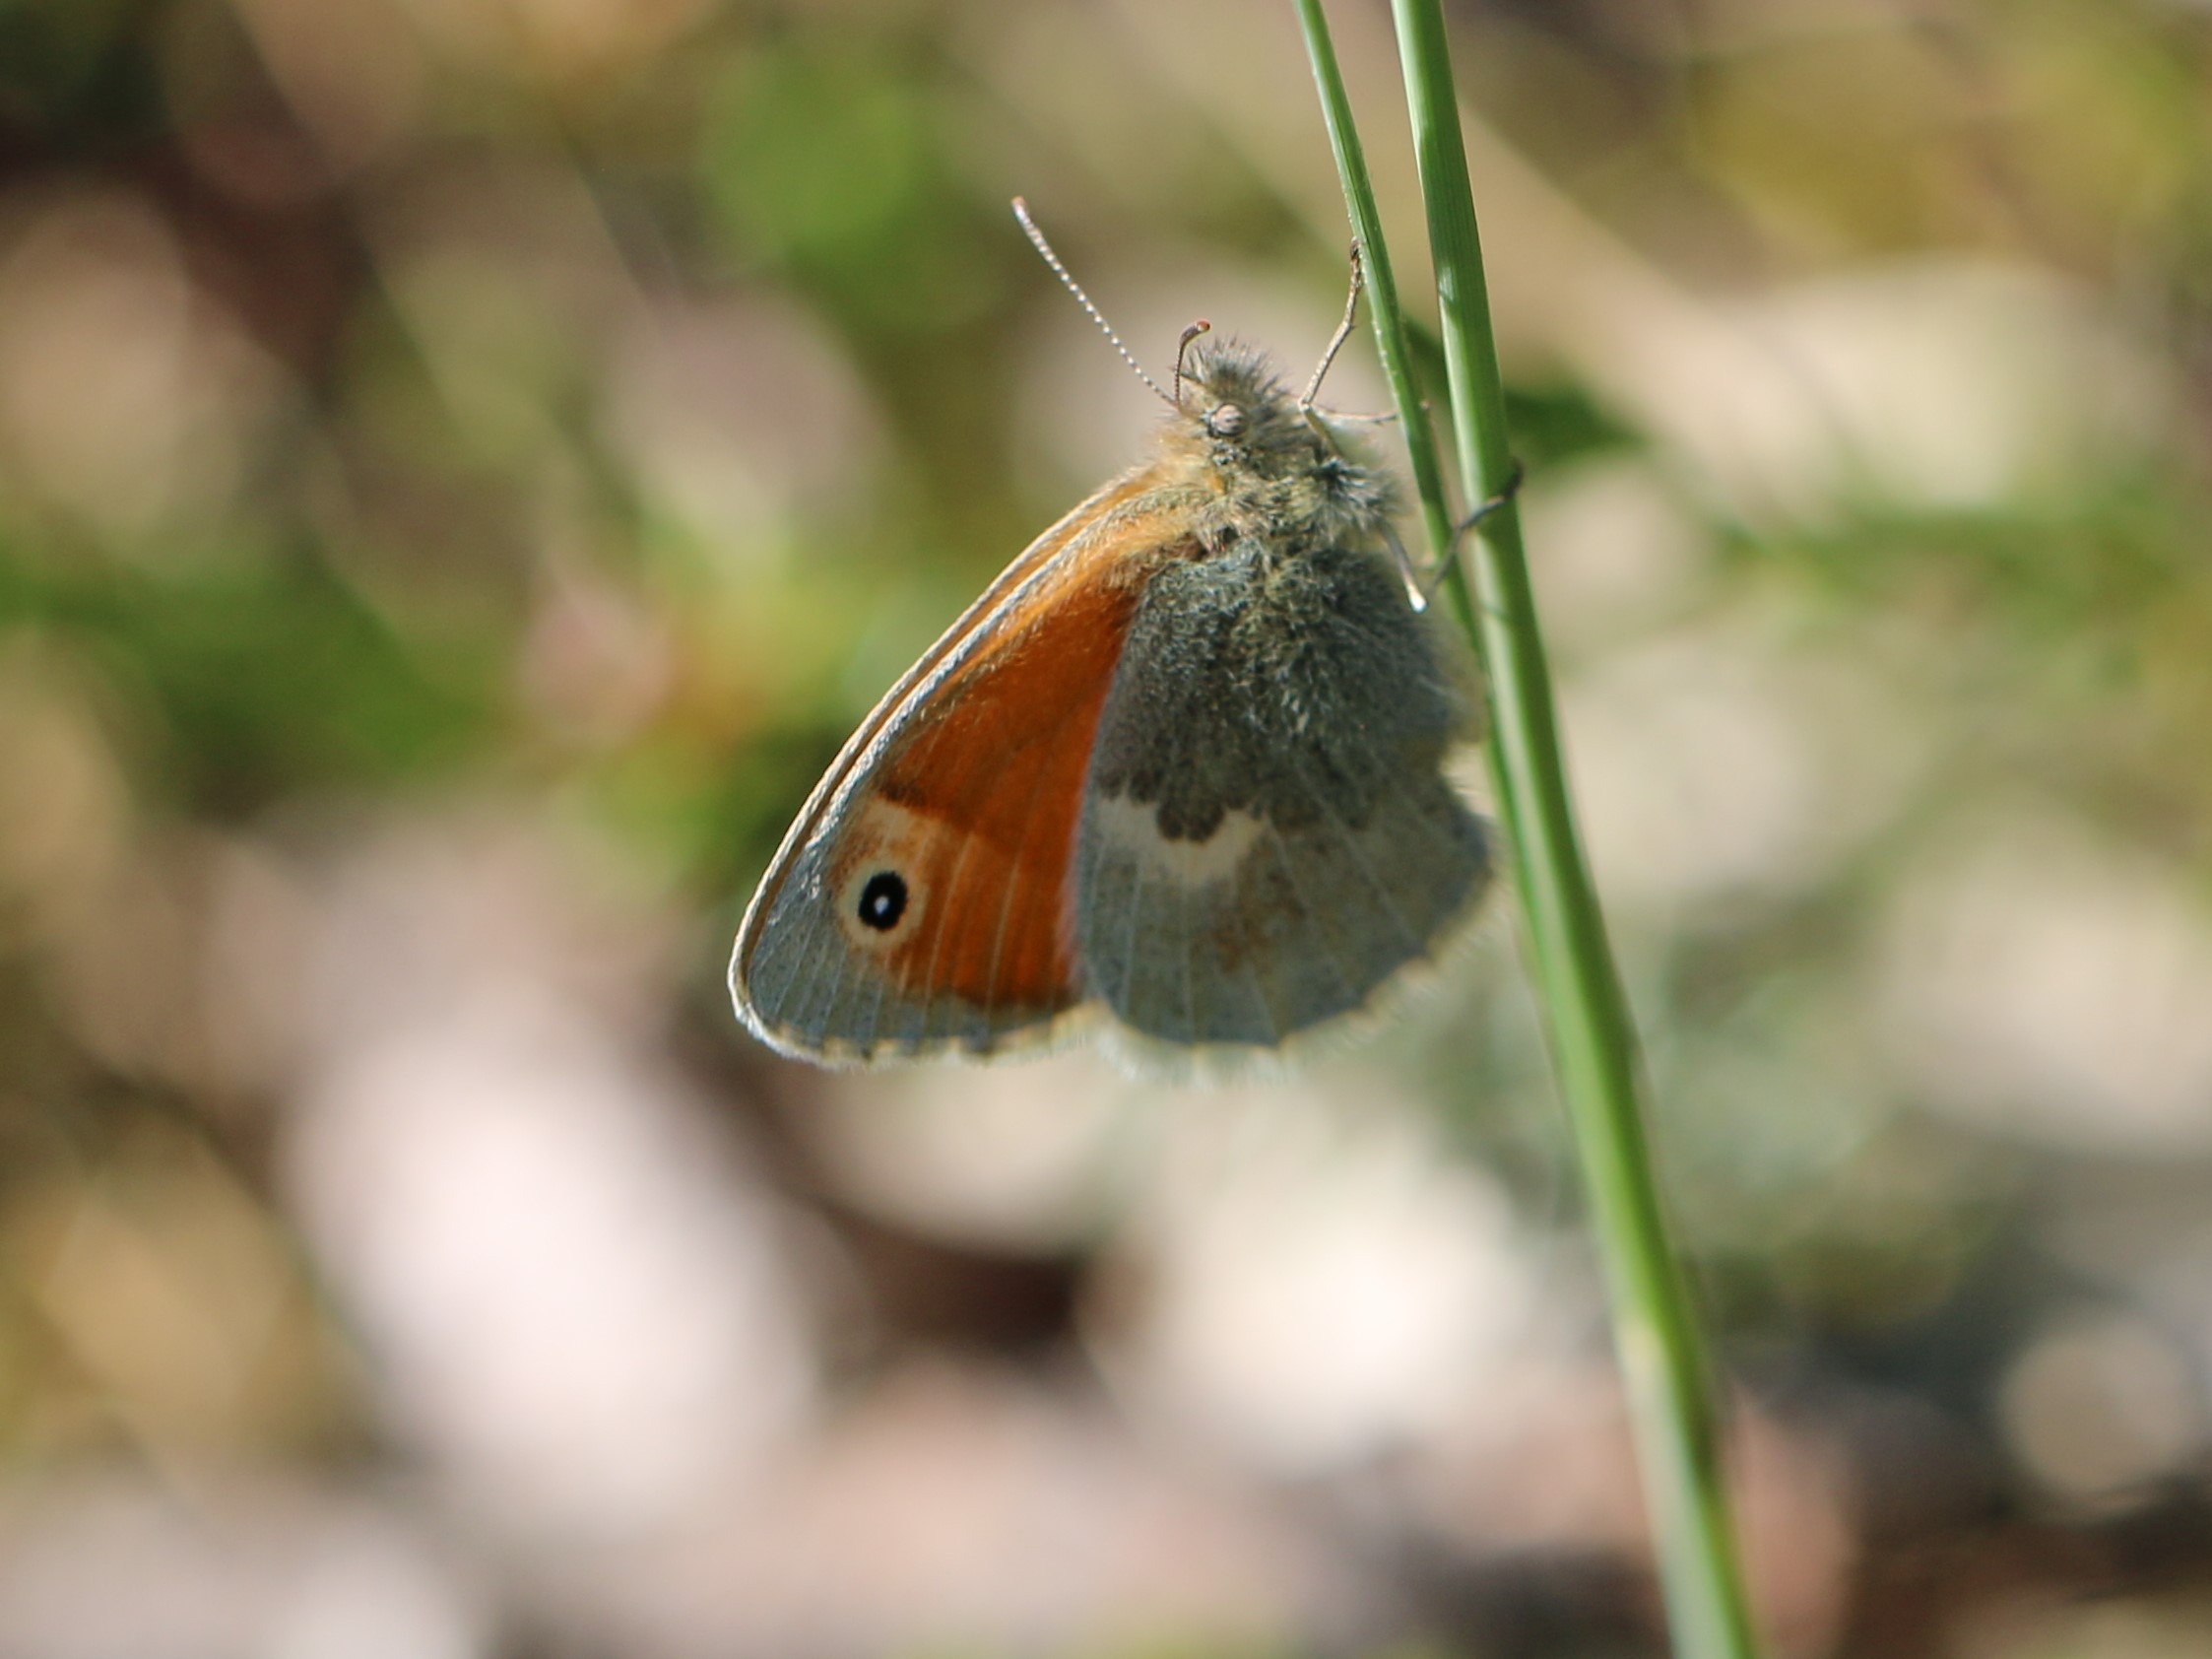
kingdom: Animalia
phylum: Arthropoda
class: Insecta
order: Lepidoptera
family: Nymphalidae
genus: Coenonympha
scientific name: Coenonympha pamphilus
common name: Okkergul randøje
